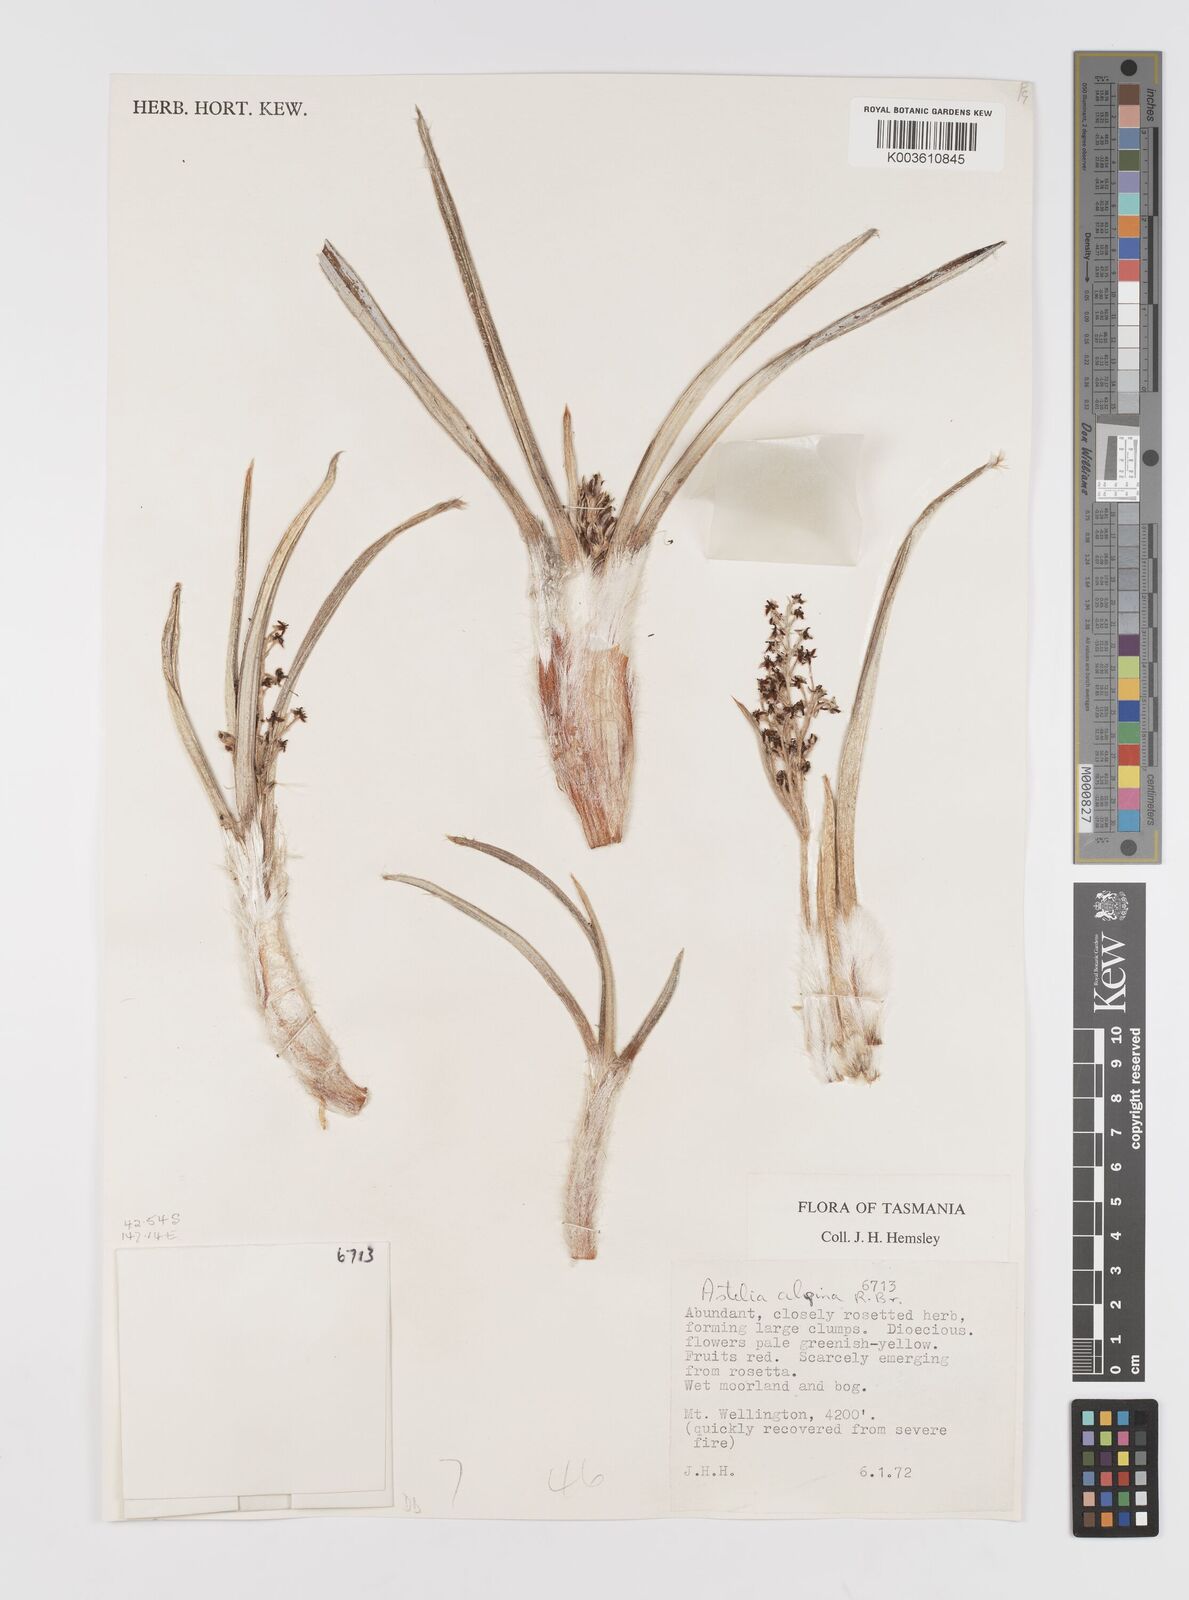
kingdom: Plantae
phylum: Tracheophyta
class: Liliopsida
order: Asparagales
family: Asteliaceae
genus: Astelia
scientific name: Astelia alpina
